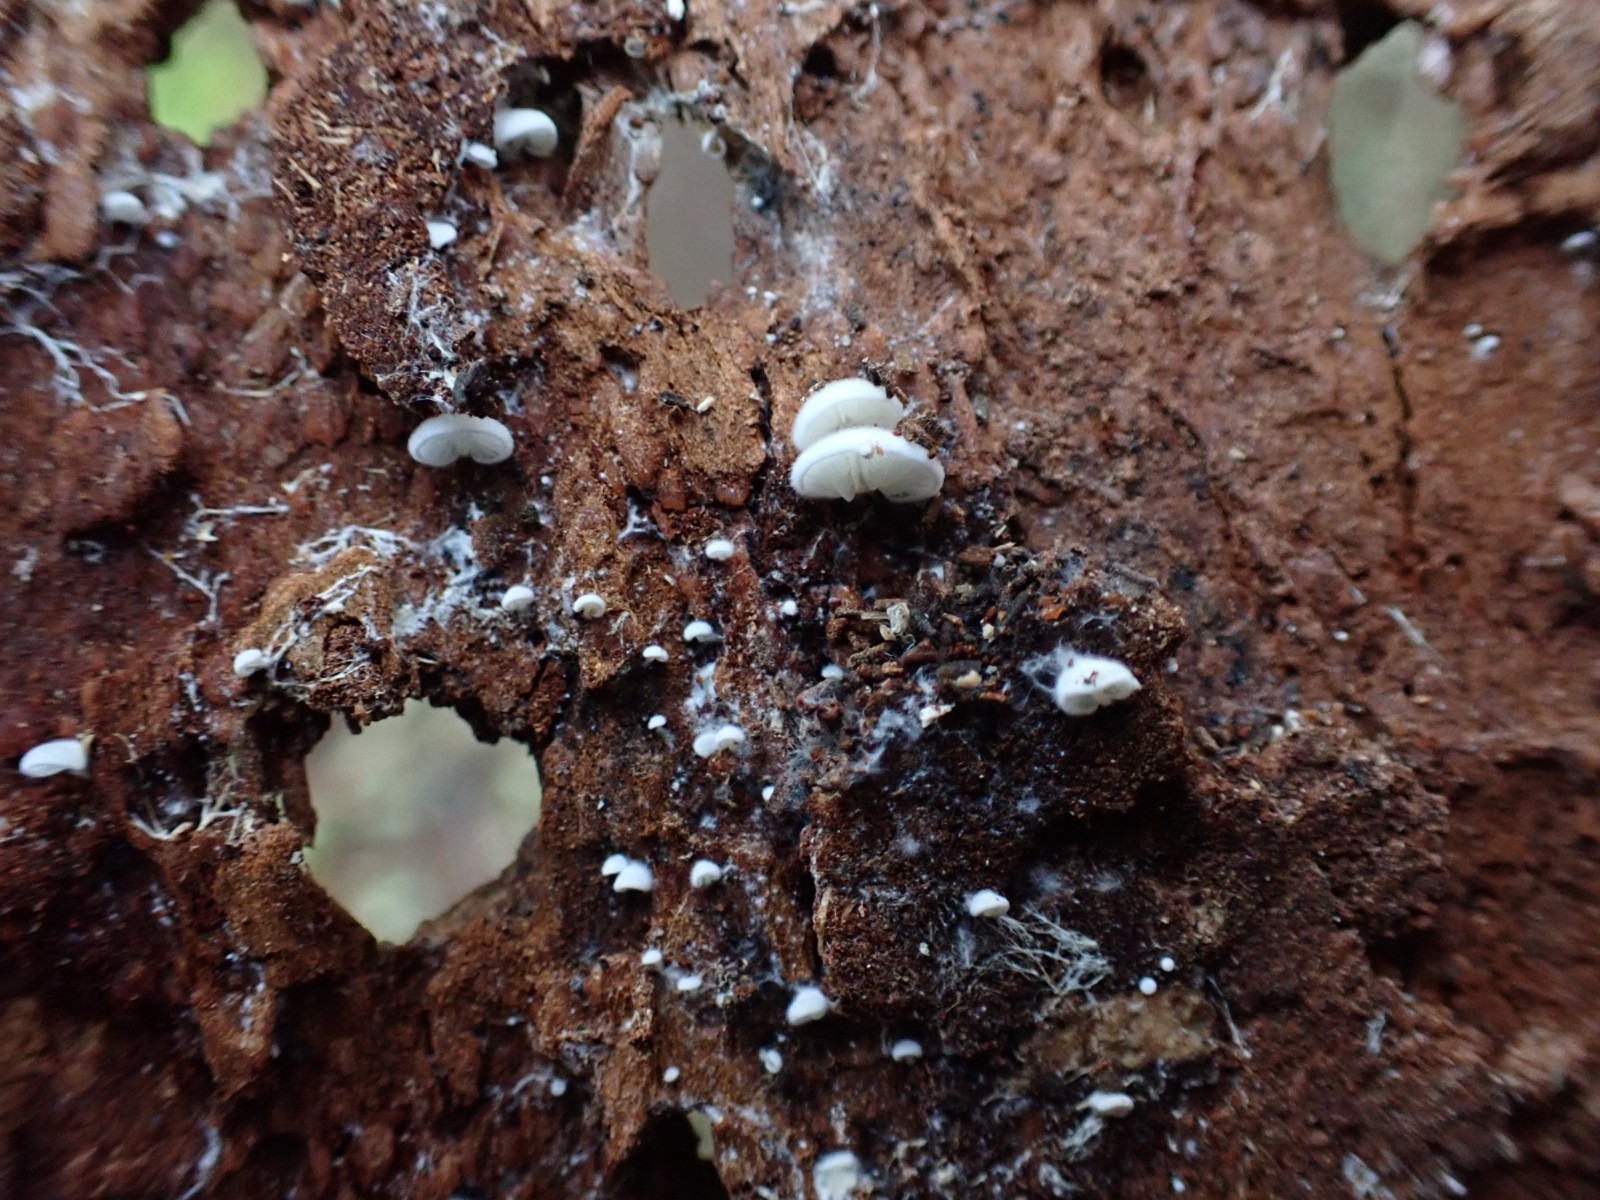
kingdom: Fungi
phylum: Basidiomycota
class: Agaricomycetes
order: Agaricales
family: Entolomataceae
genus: Clitopilus
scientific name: Clitopilus hobsonii
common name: Miller's oysterling
